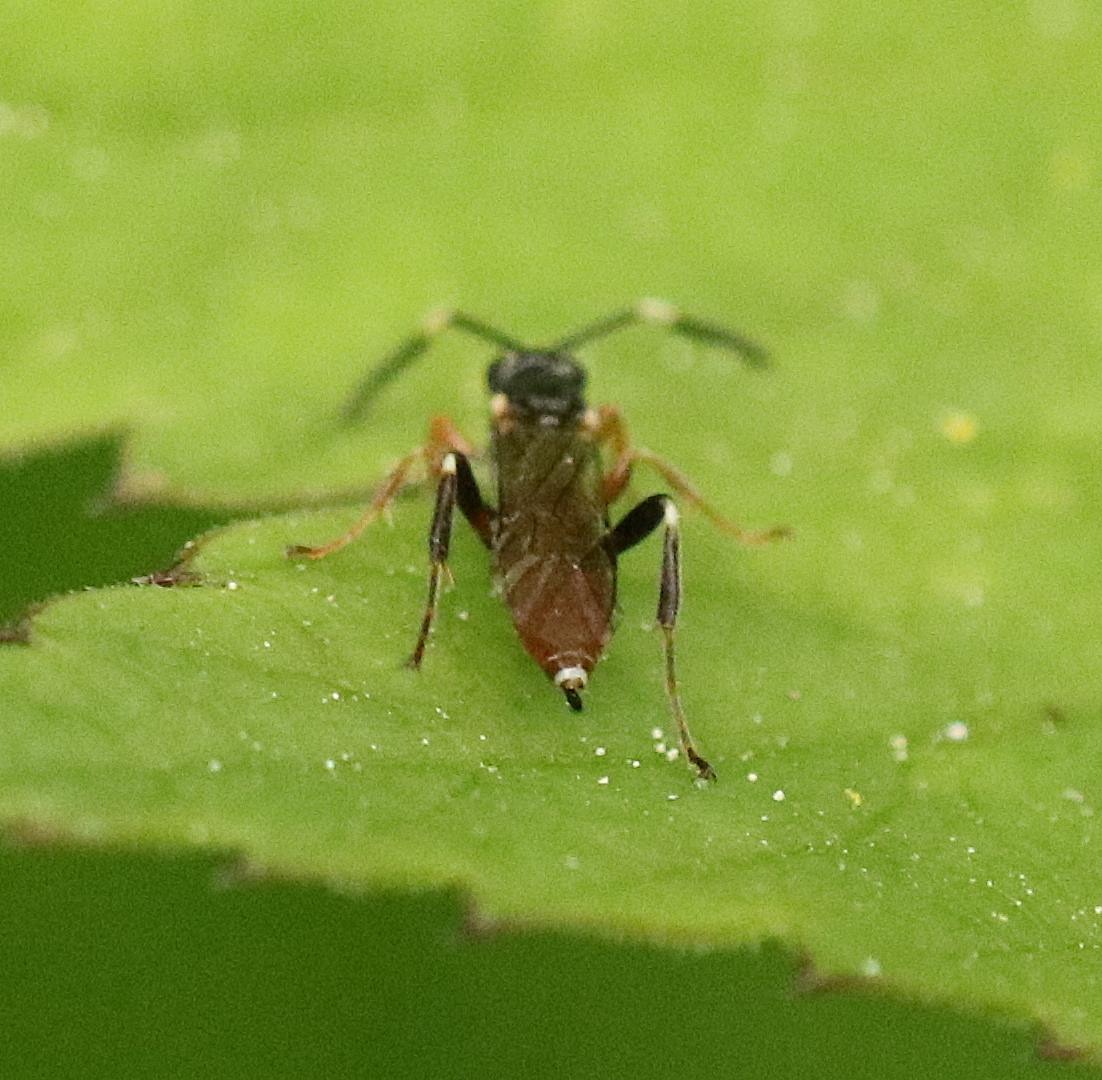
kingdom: Animalia
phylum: Arthropoda
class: Insecta
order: Hymenoptera
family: Ichneumonidae
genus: Homotherus
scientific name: Homotherus locutor
